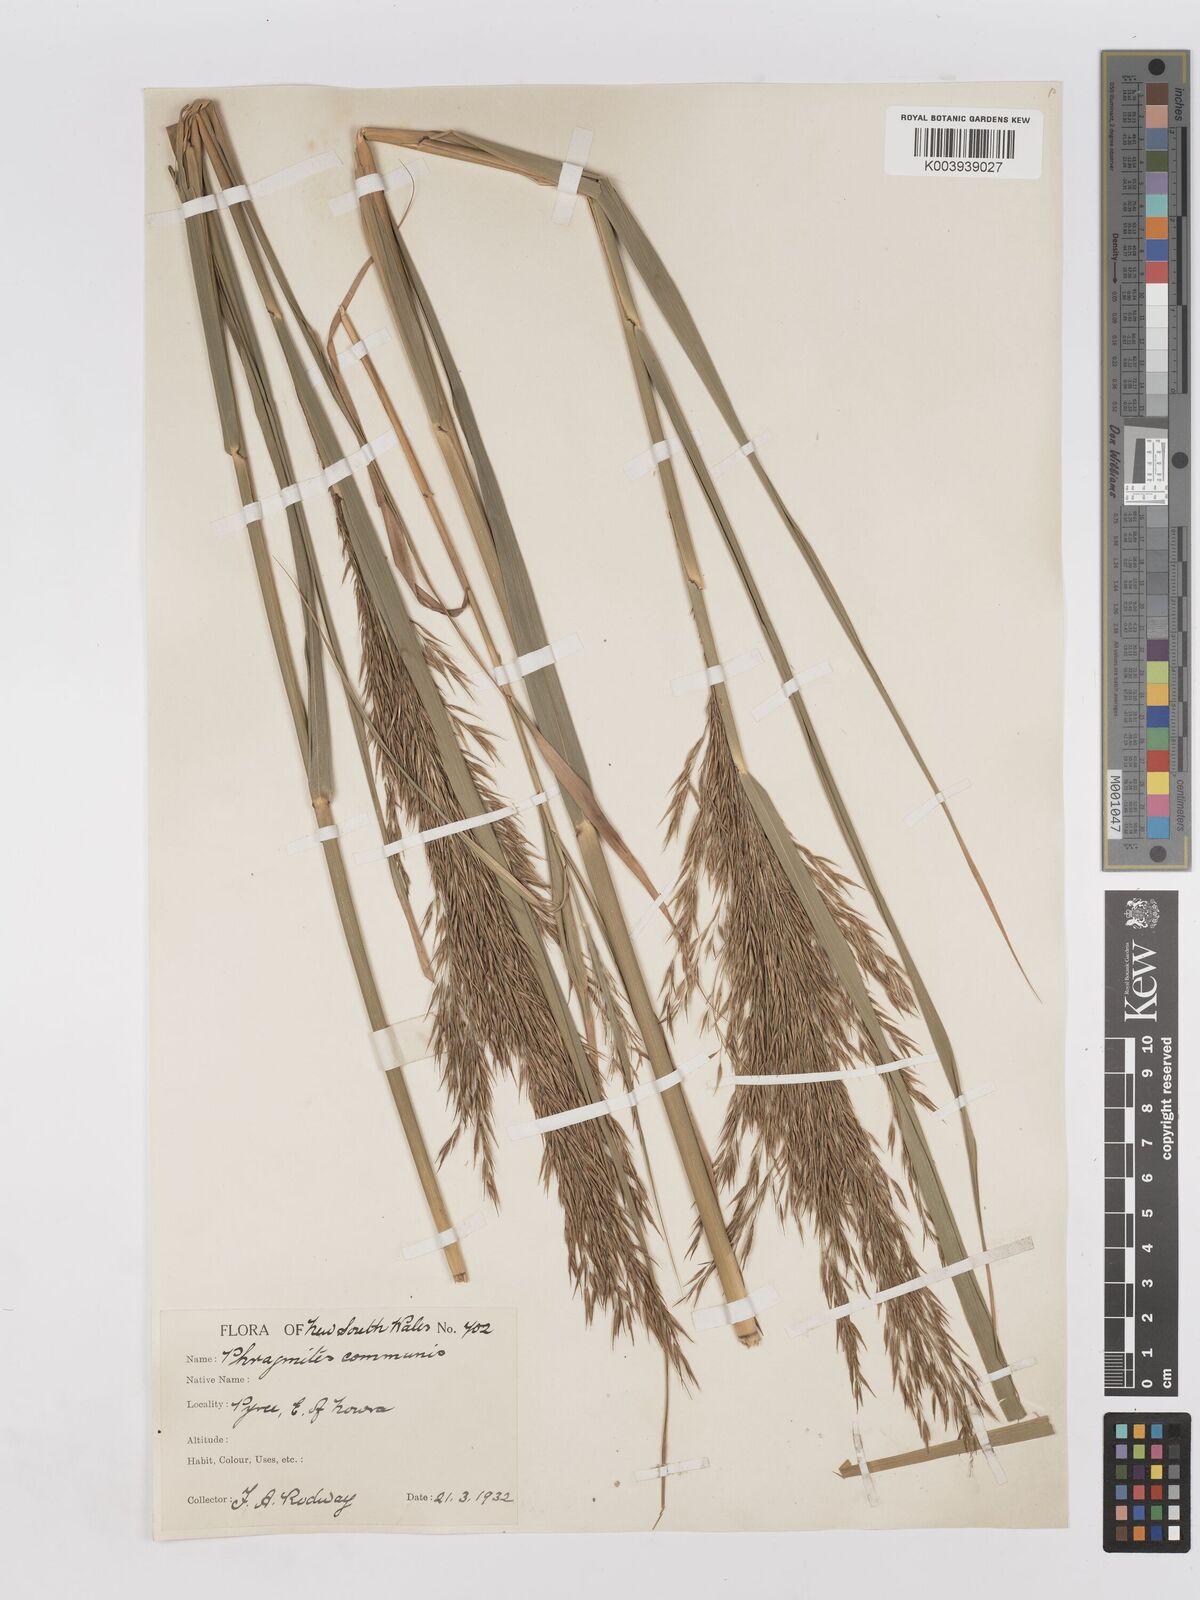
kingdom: Plantae
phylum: Tracheophyta
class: Liliopsida
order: Poales
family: Poaceae
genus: Phragmites
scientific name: Phragmites australis
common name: Common reed
